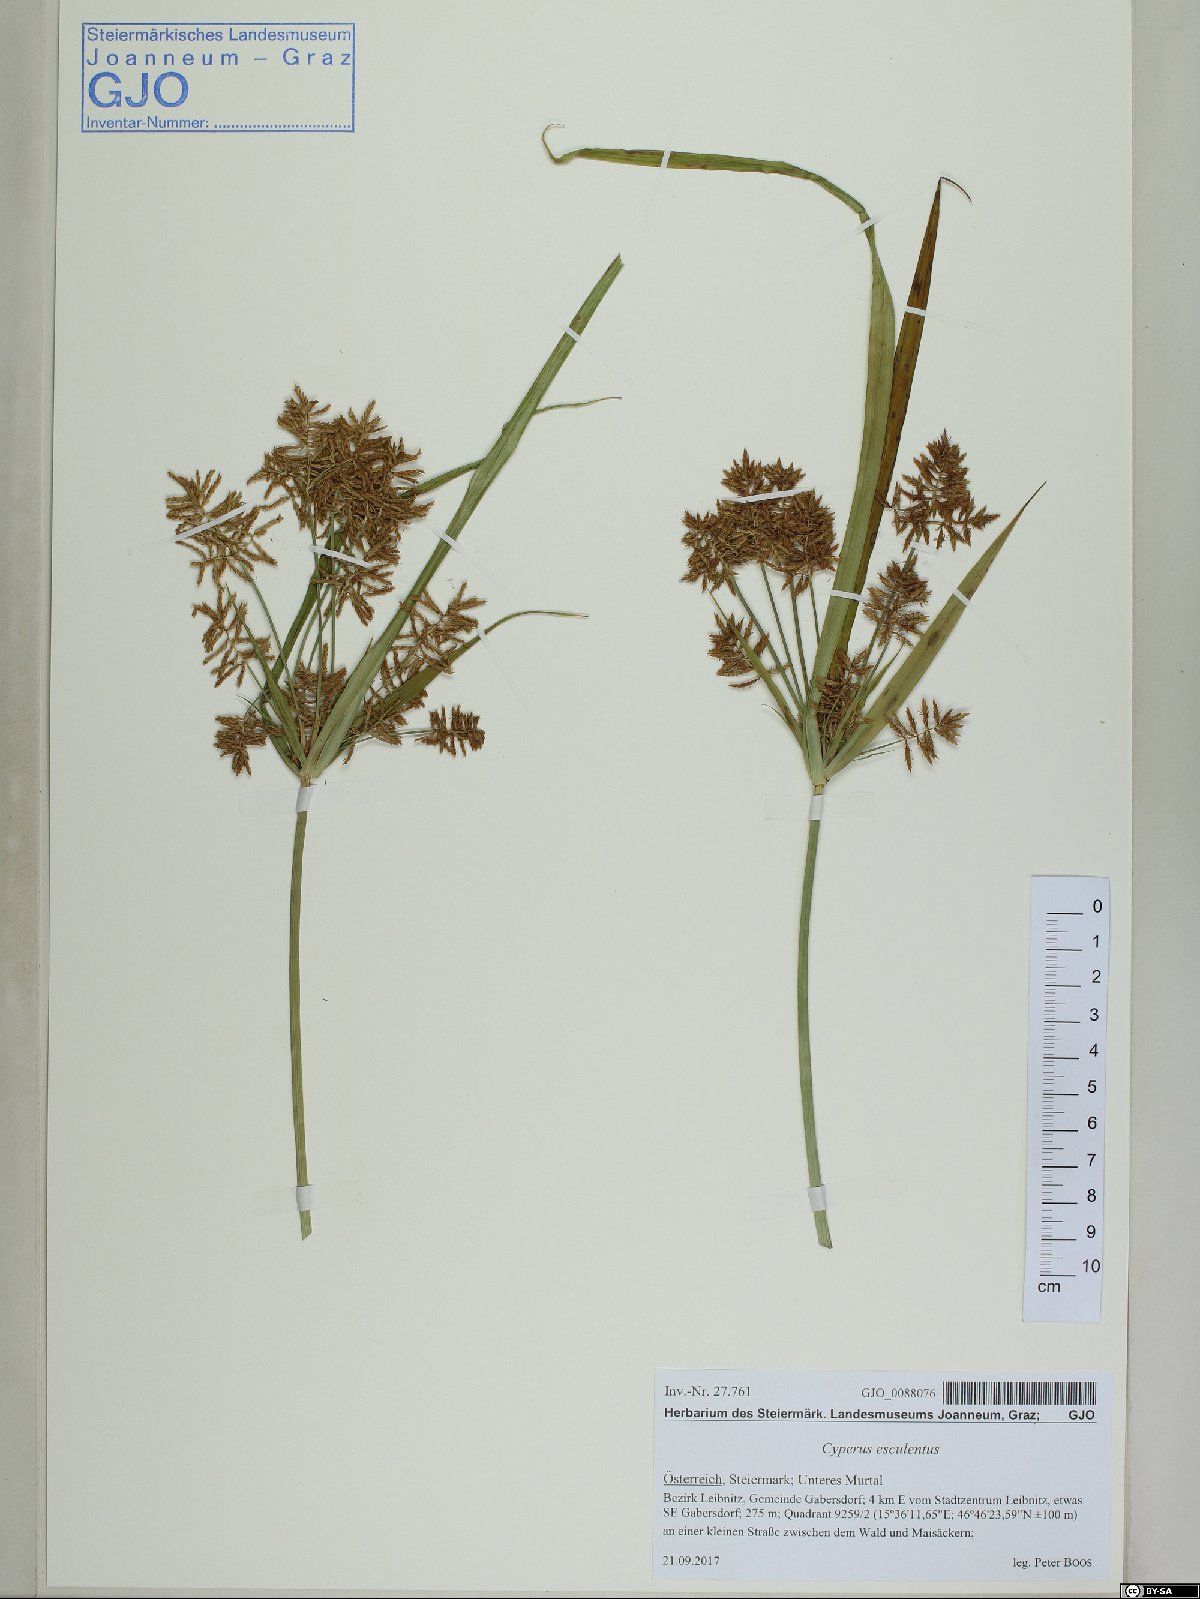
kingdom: Plantae
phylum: Tracheophyta
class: Liliopsida
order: Poales
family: Cyperaceae
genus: Cyperus
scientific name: Cyperus esculentus
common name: Yellow nutsedge
